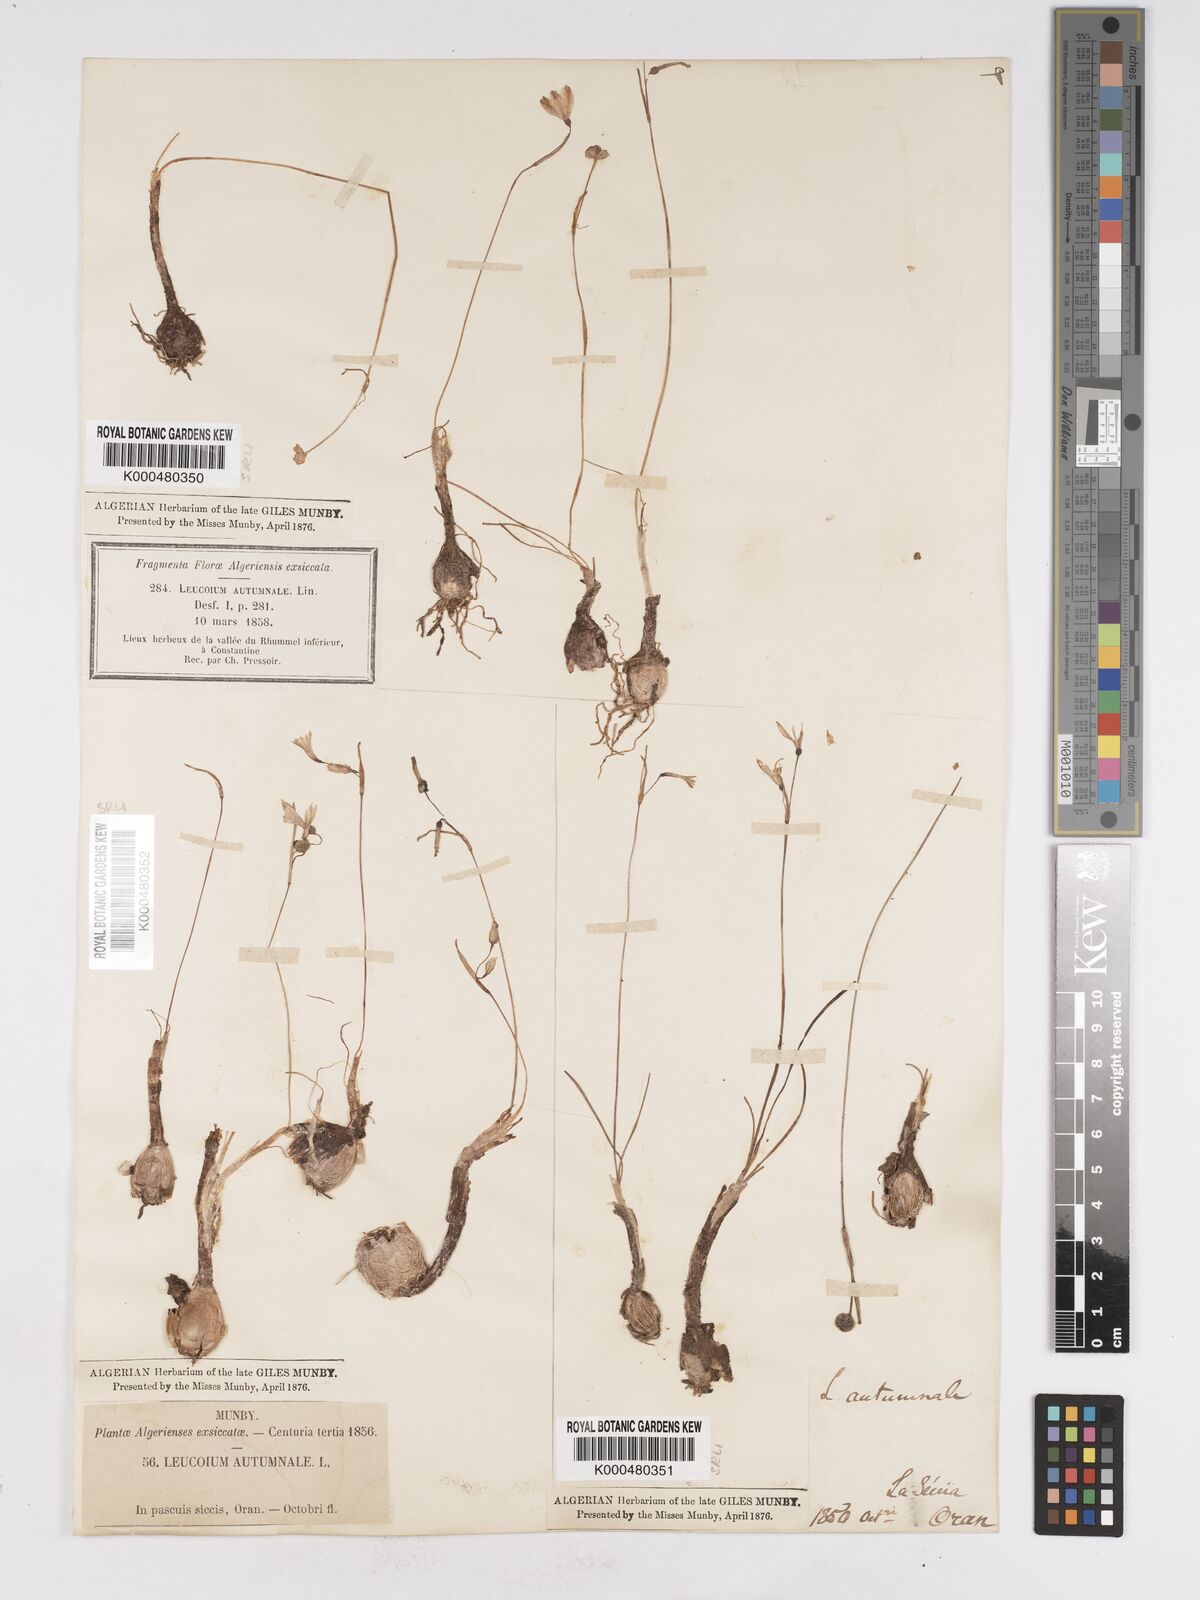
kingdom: Plantae
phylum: Tracheophyta
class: Liliopsida
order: Asparagales
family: Amaryllidaceae
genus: Acis
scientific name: Acis autumnalis
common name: Autumn snowflake
